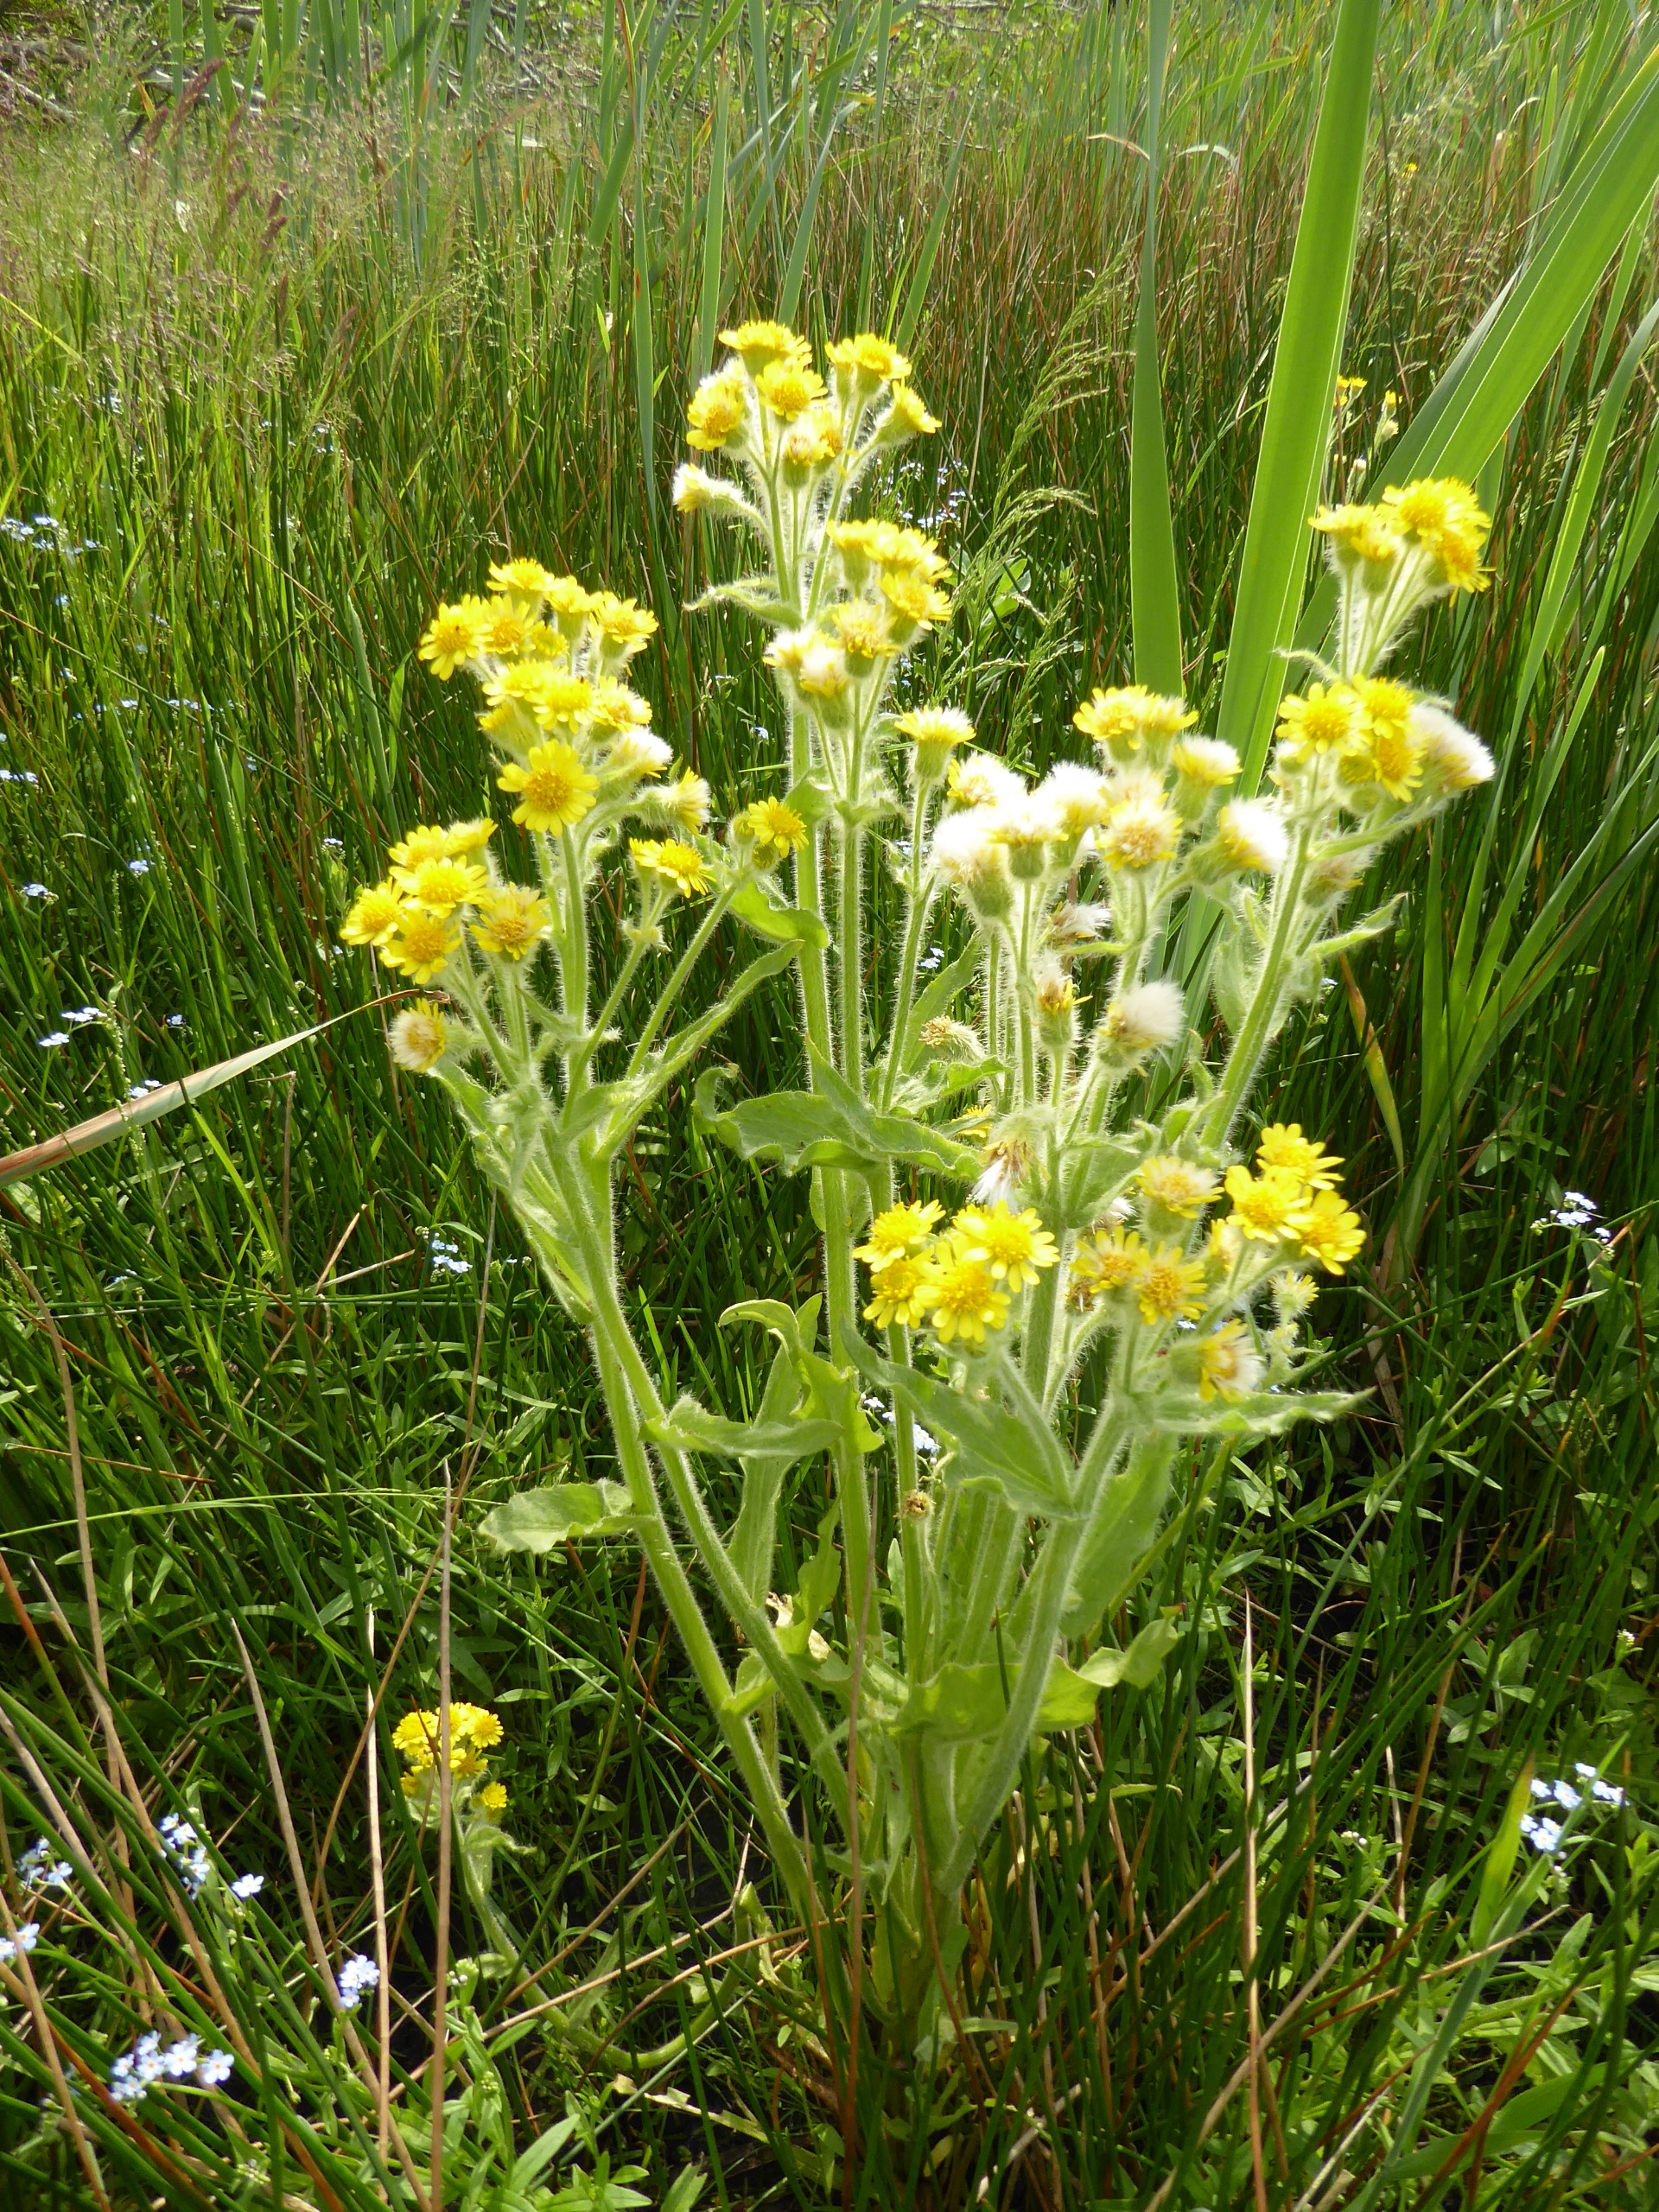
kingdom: Plantae
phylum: Tracheophyta
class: Magnoliopsida
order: Asterales
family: Asteraceae
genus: Tephroseris
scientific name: Tephroseris palustris
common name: Kær-fnokurt
